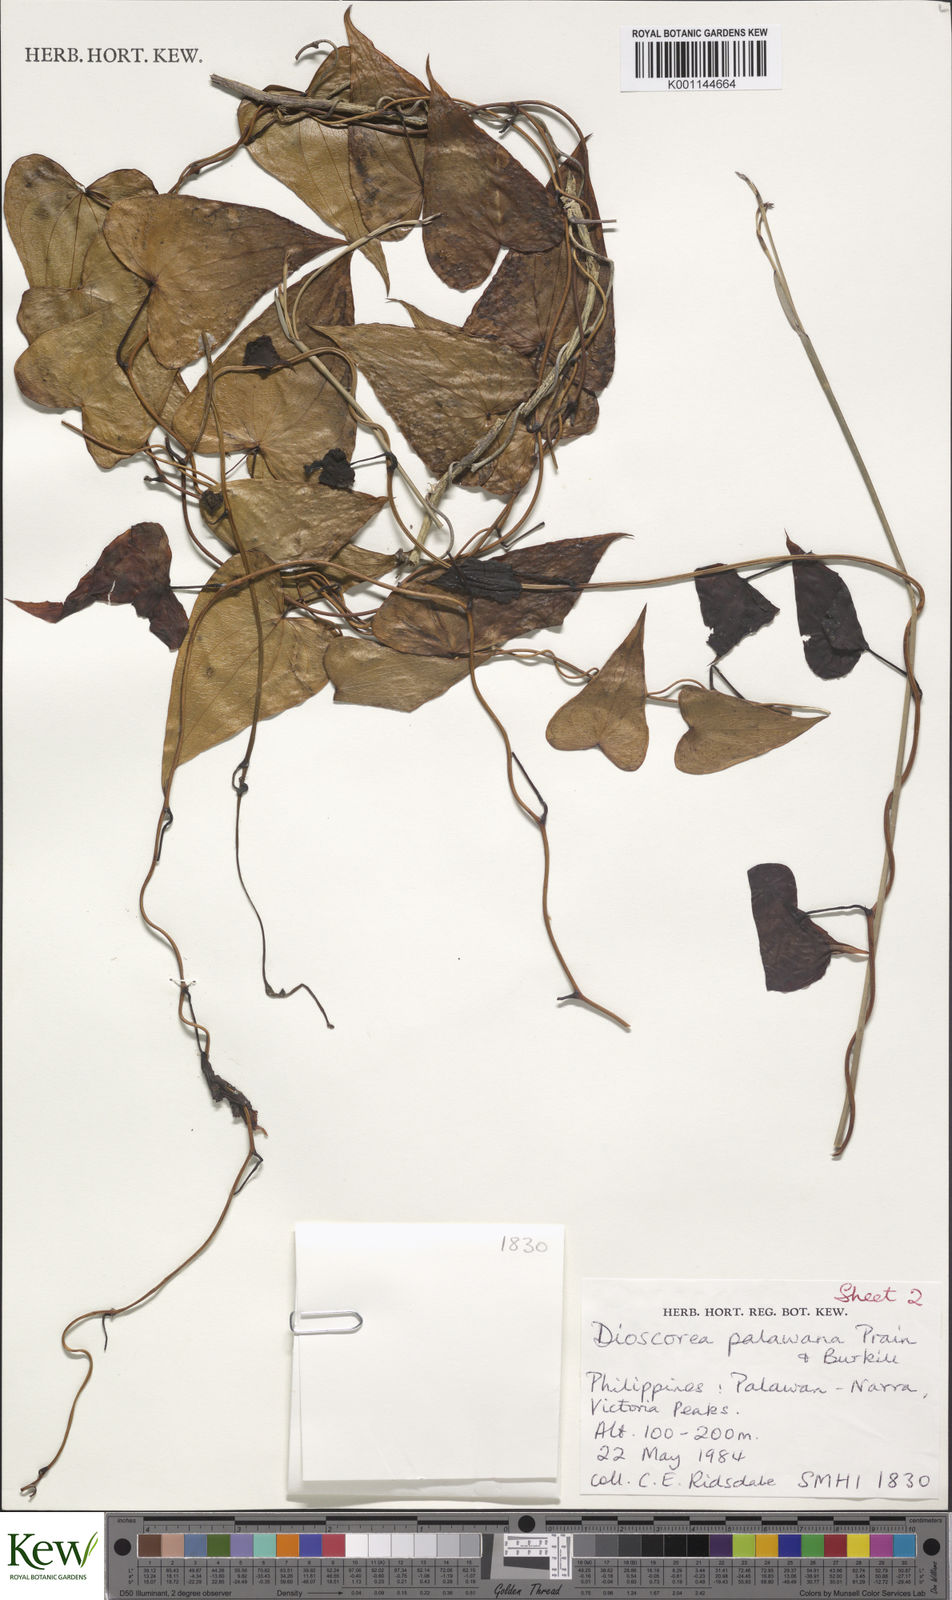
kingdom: Plantae
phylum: Tracheophyta
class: Liliopsida
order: Dioscoreales
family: Dioscoreaceae
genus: Dioscorea
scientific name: Dioscorea palawana
